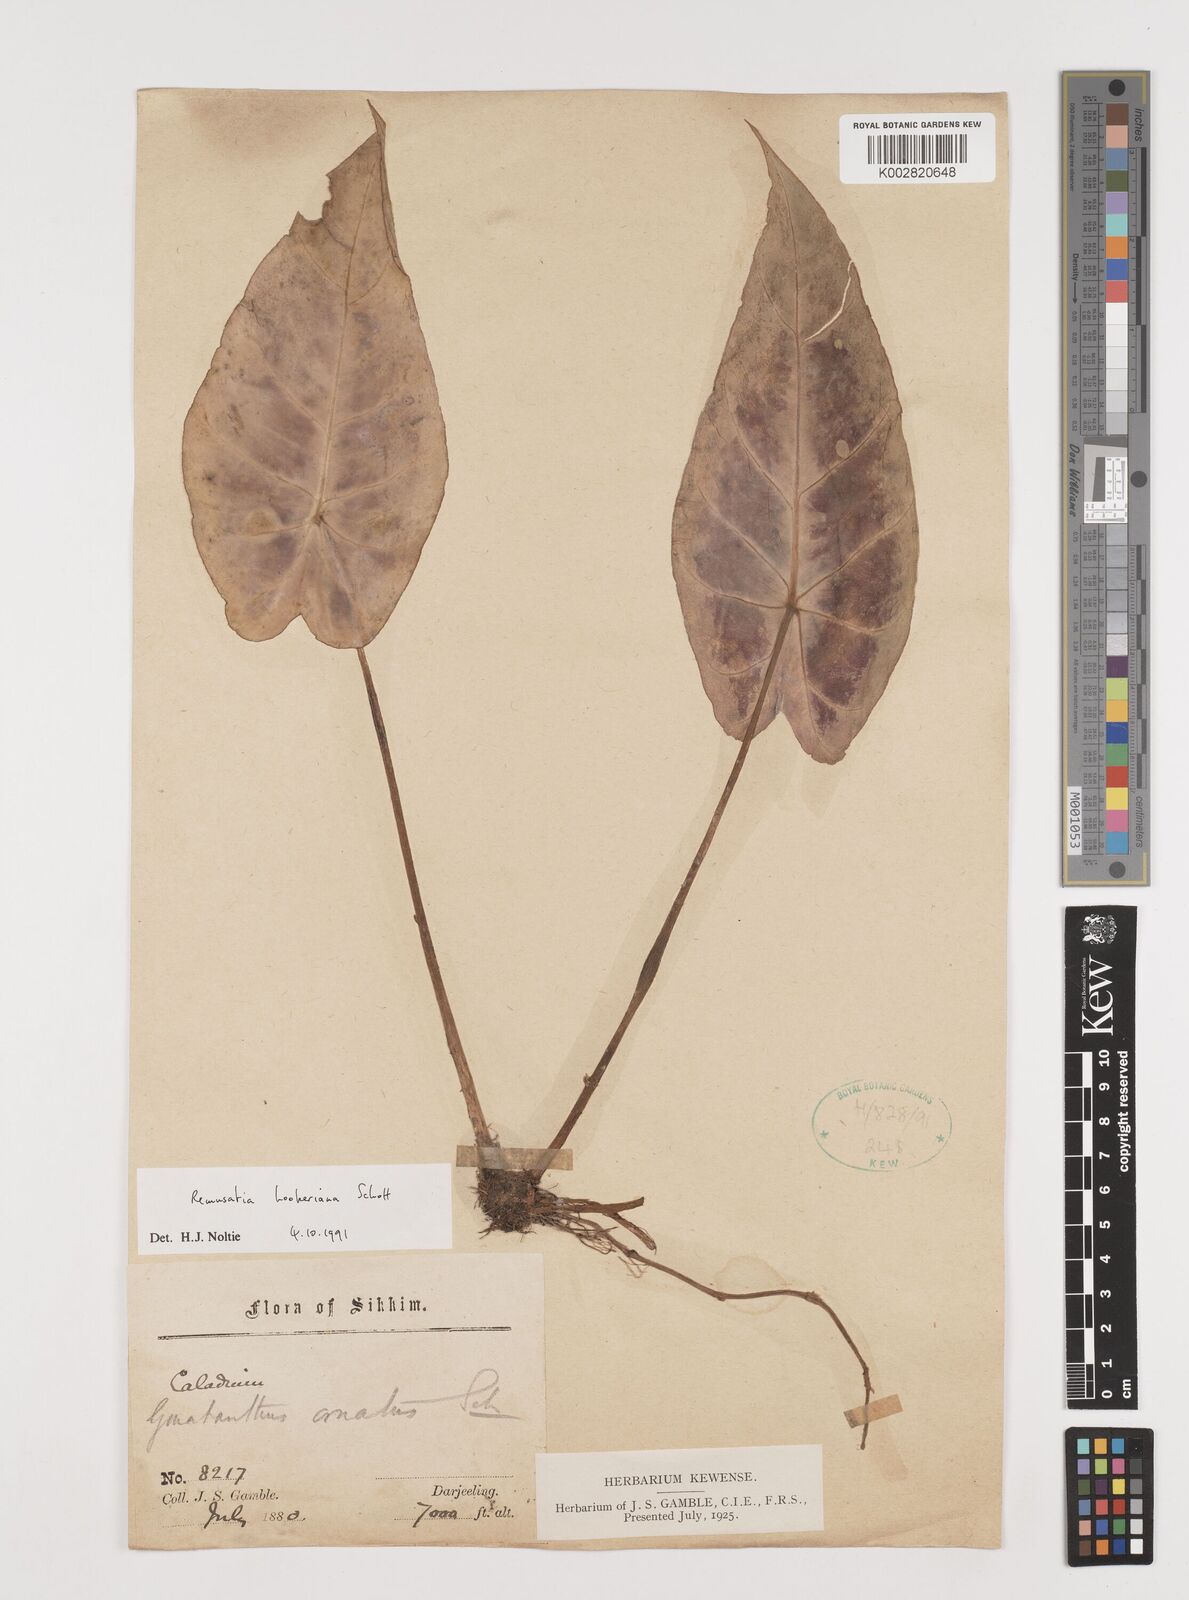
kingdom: Plantae
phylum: Tracheophyta
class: Liliopsida
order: Alismatales
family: Araceae
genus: Remusatia
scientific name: Remusatia hookeriana
